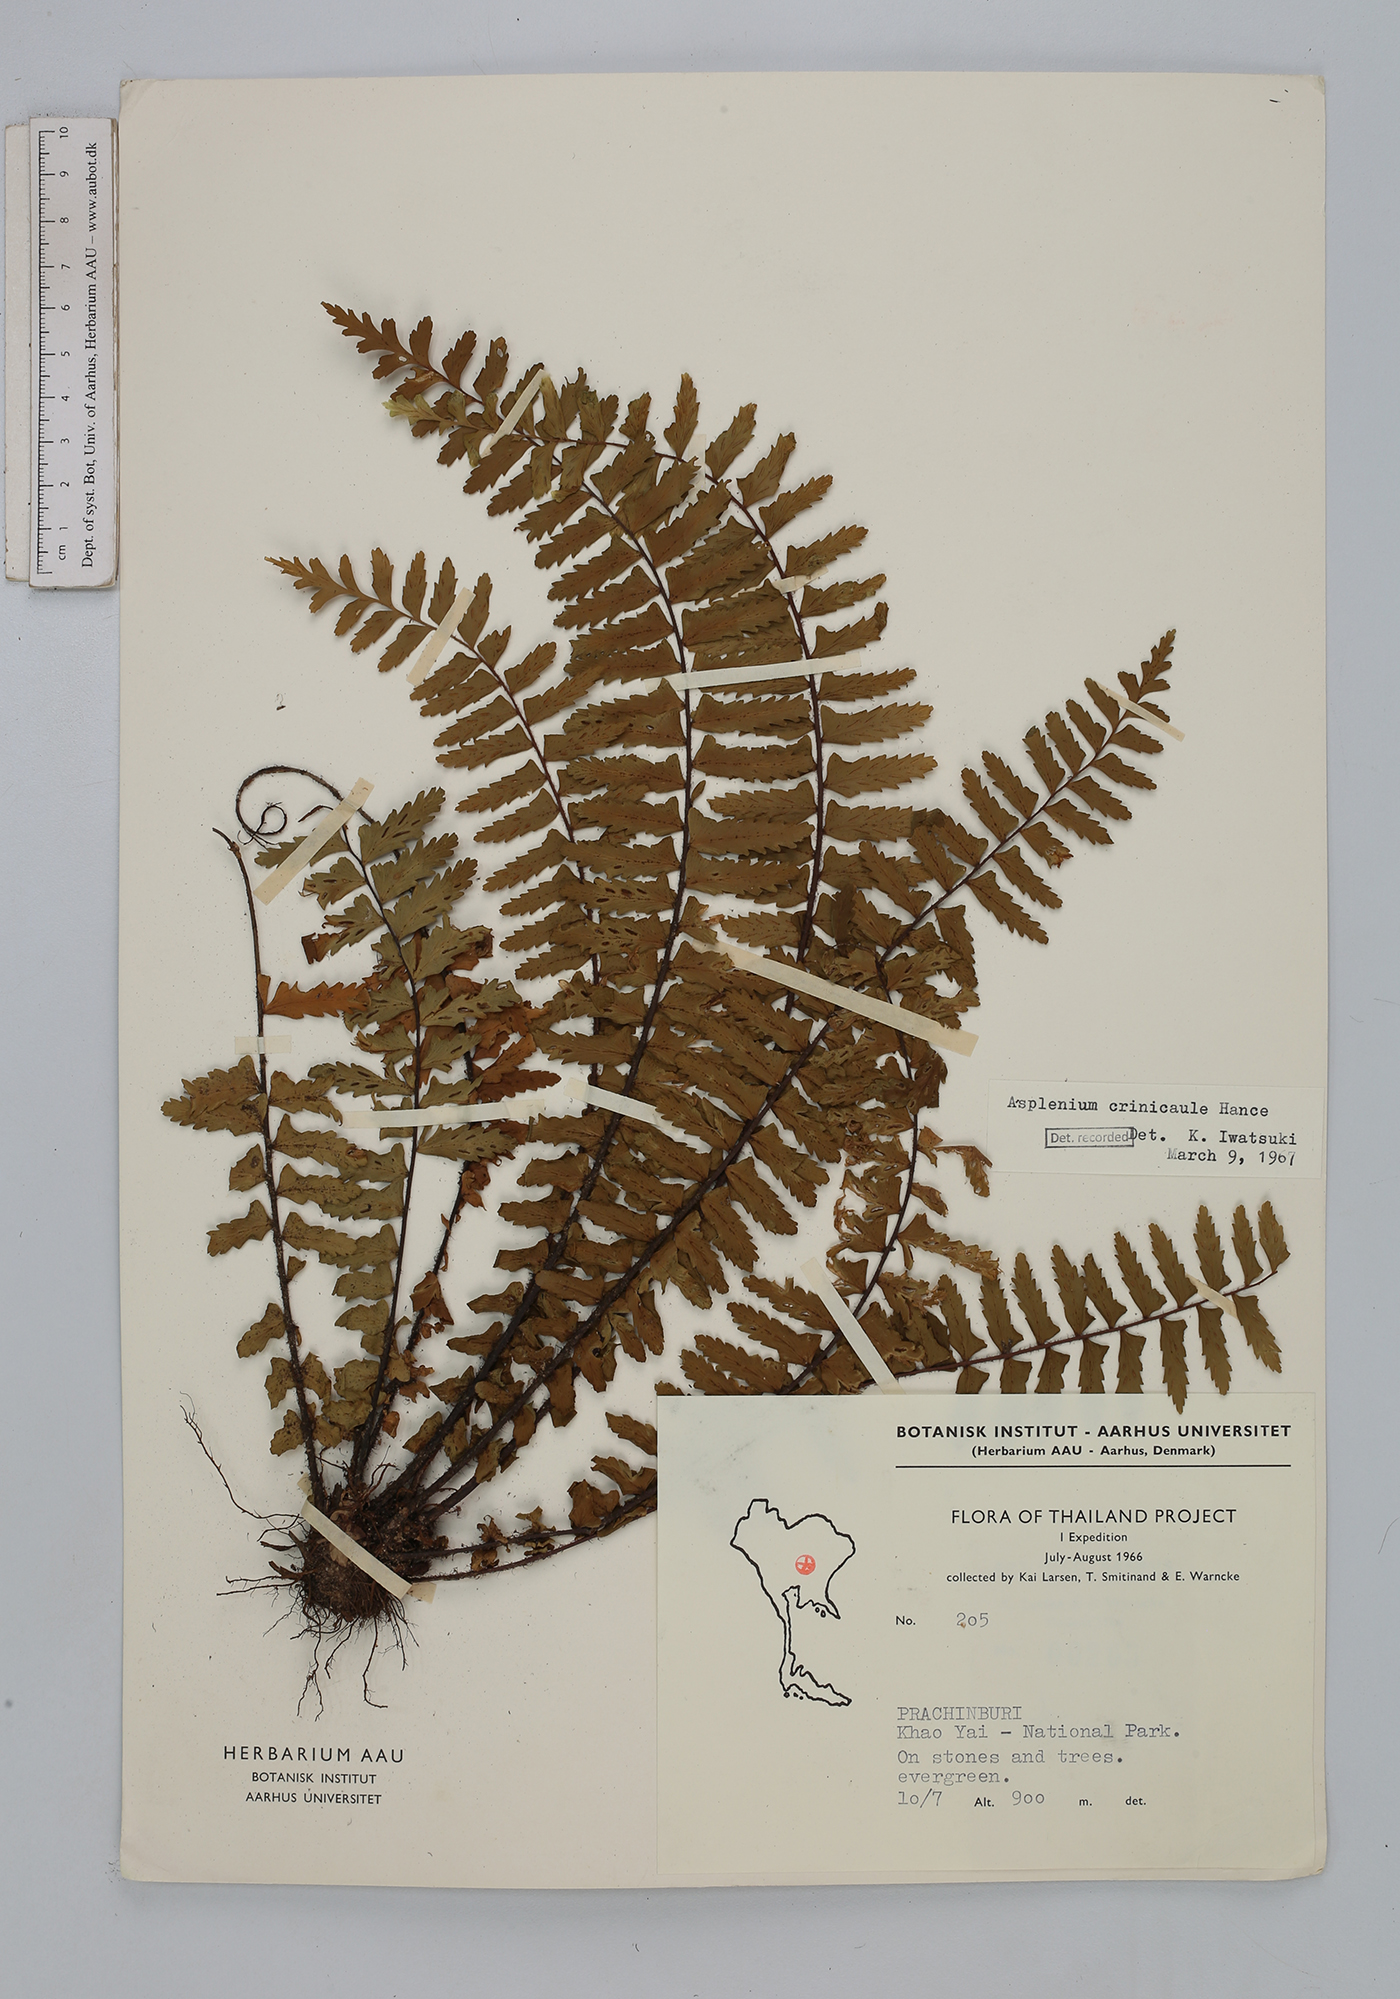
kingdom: Plantae
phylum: Tracheophyta
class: Polypodiopsida
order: Polypodiales
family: Aspleniaceae
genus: Asplenium
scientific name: Asplenium crinicaule
